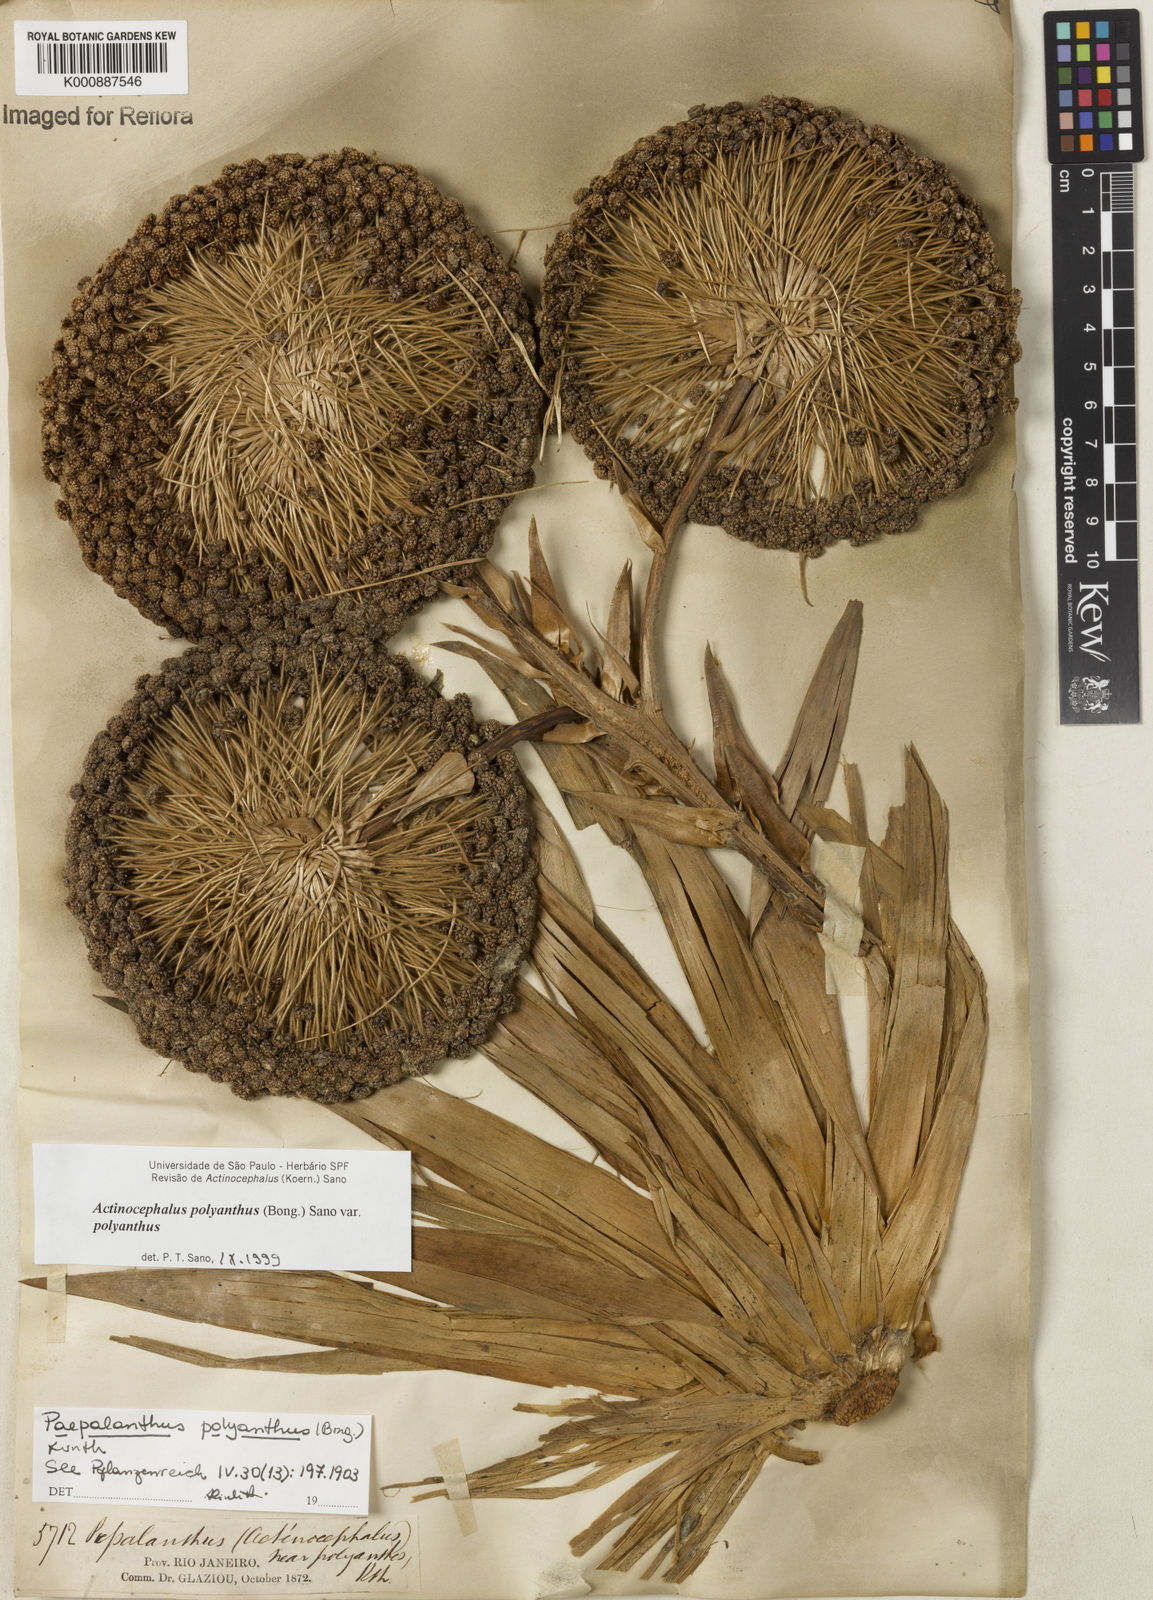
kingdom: Plantae
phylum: Tracheophyta
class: Liliopsida
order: Poales
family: Eriocaulaceae
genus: Paepalanthus
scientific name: Paepalanthus polyanthus
